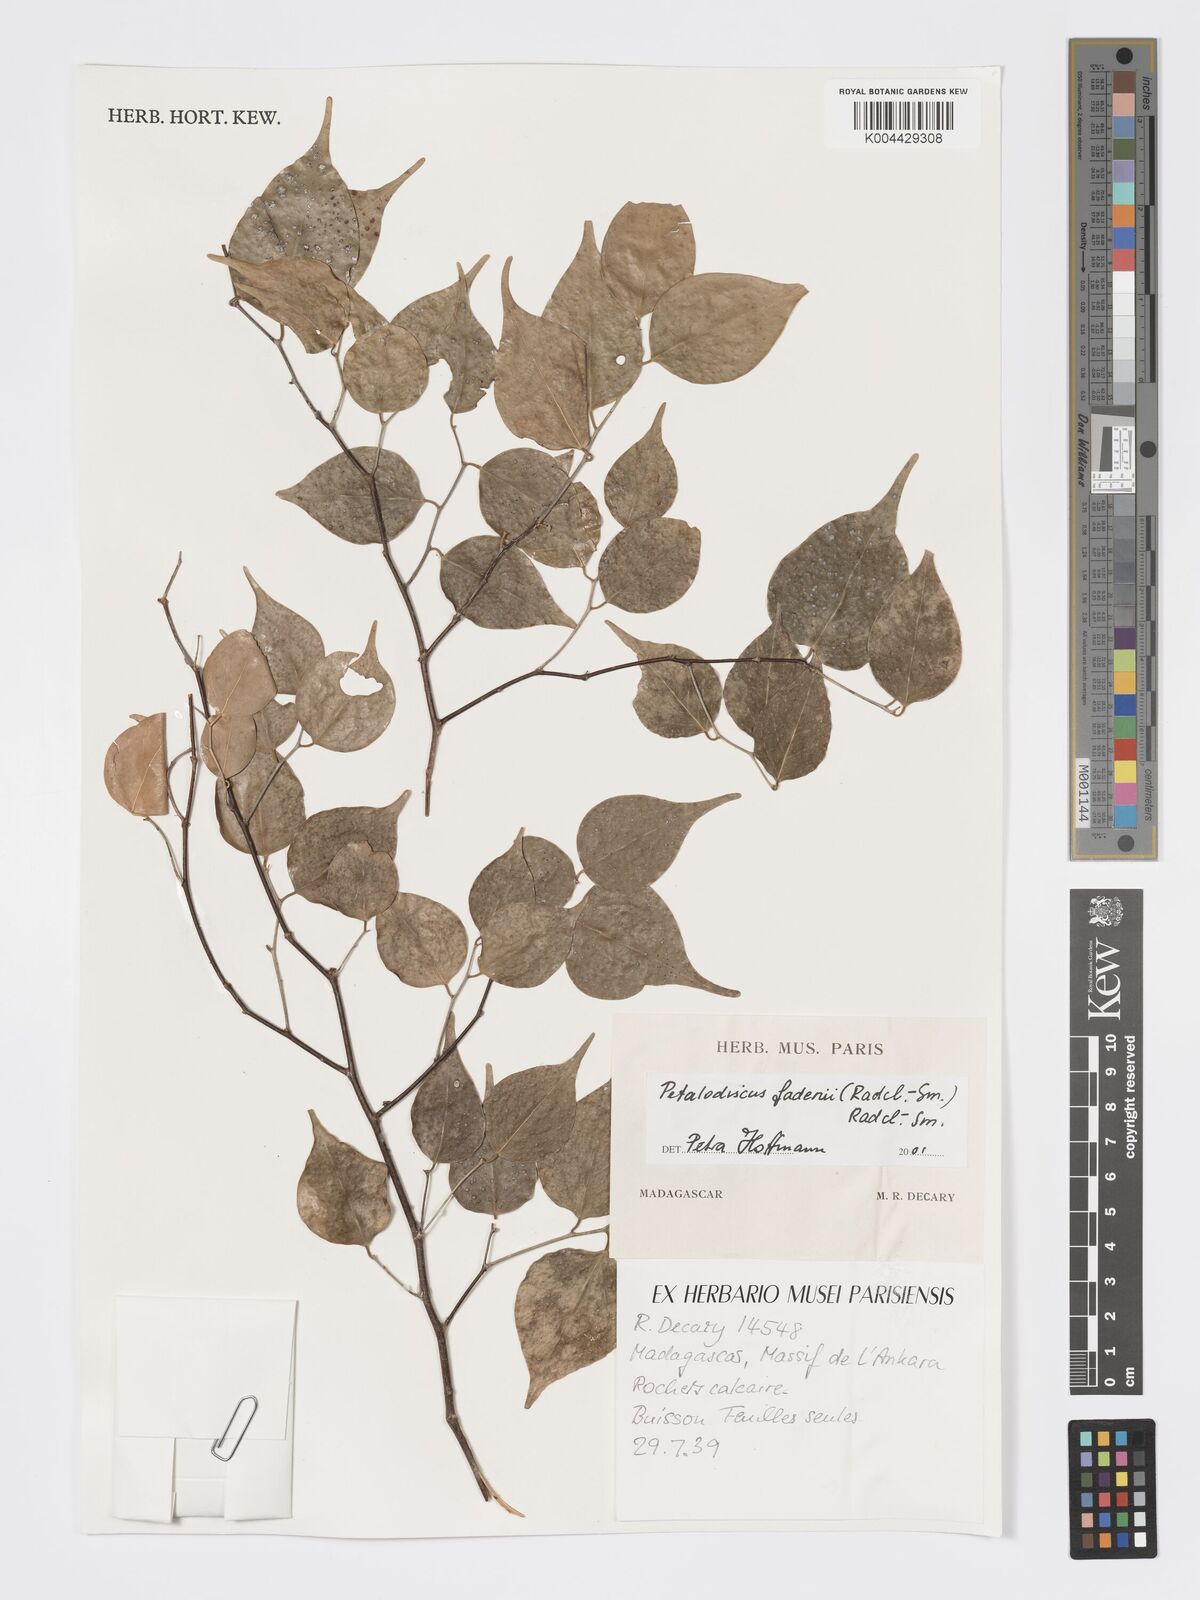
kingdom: Plantae
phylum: Tracheophyta
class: Magnoliopsida
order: Malpighiales
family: Phyllanthaceae
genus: Wielandia
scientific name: Wielandia fadenii
